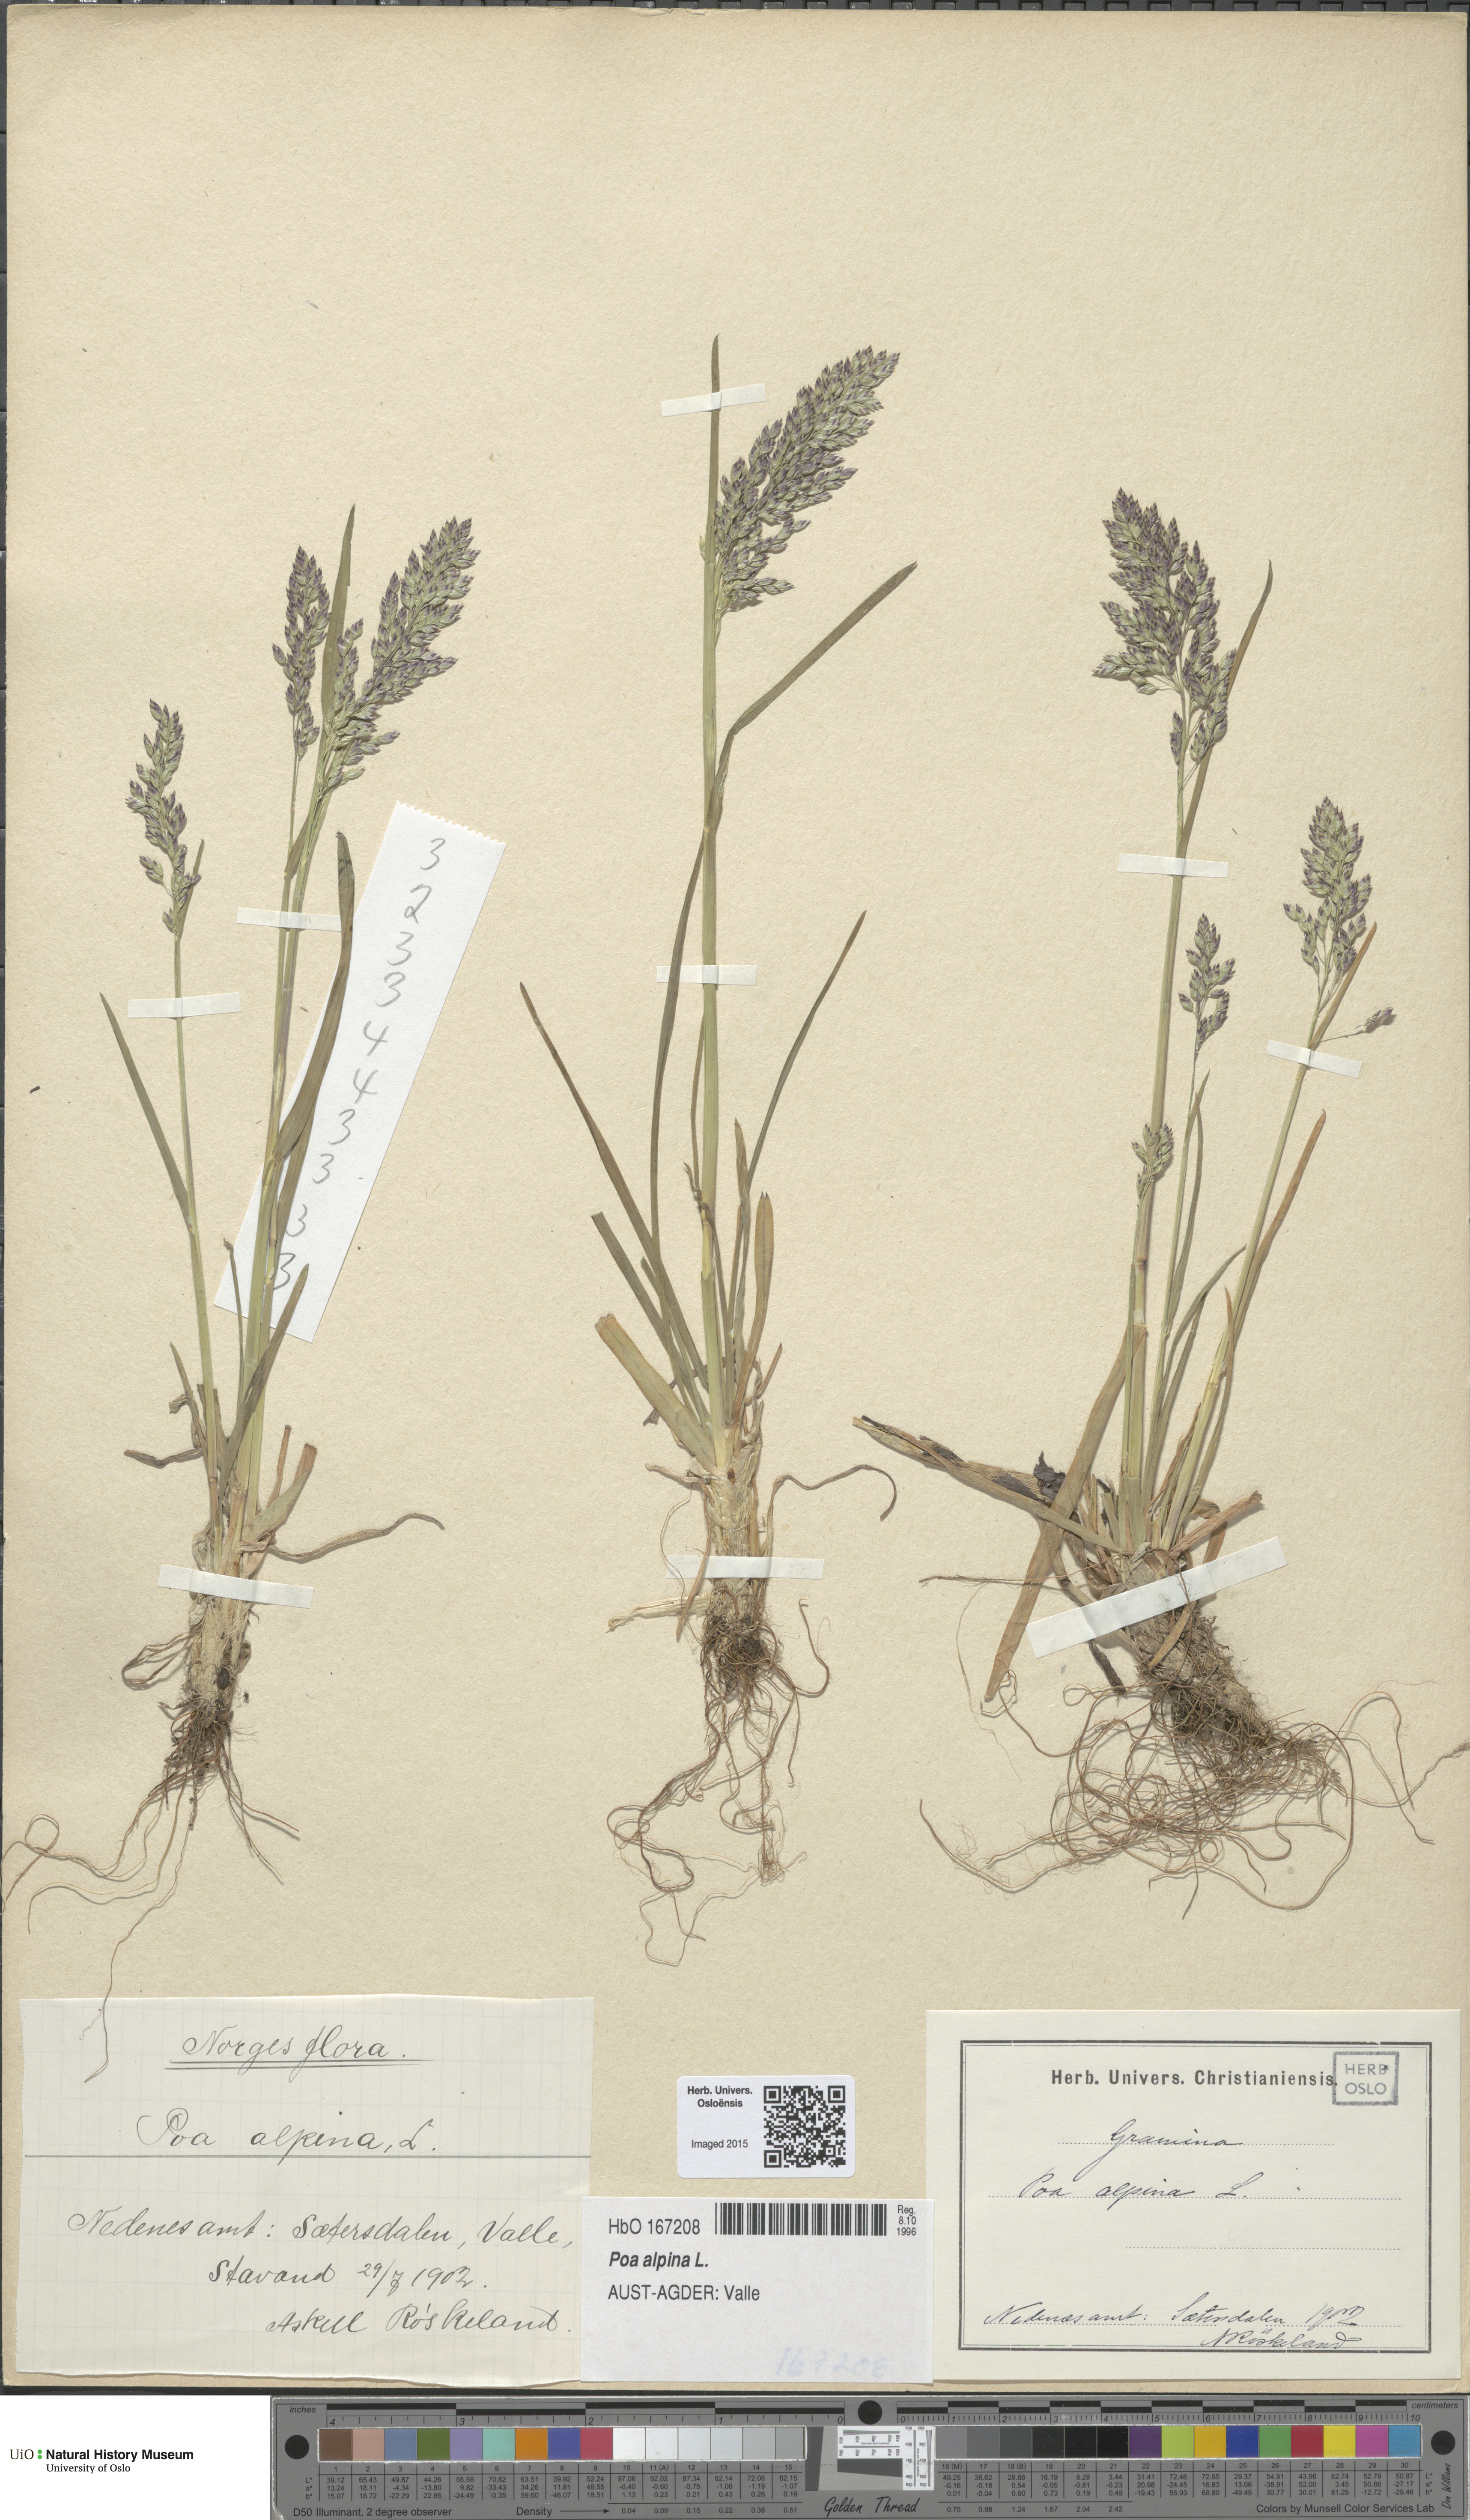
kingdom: Plantae
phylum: Tracheophyta
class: Liliopsida
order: Poales
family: Poaceae
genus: Poa
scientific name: Poa alpina
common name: Alpine bluegrass
